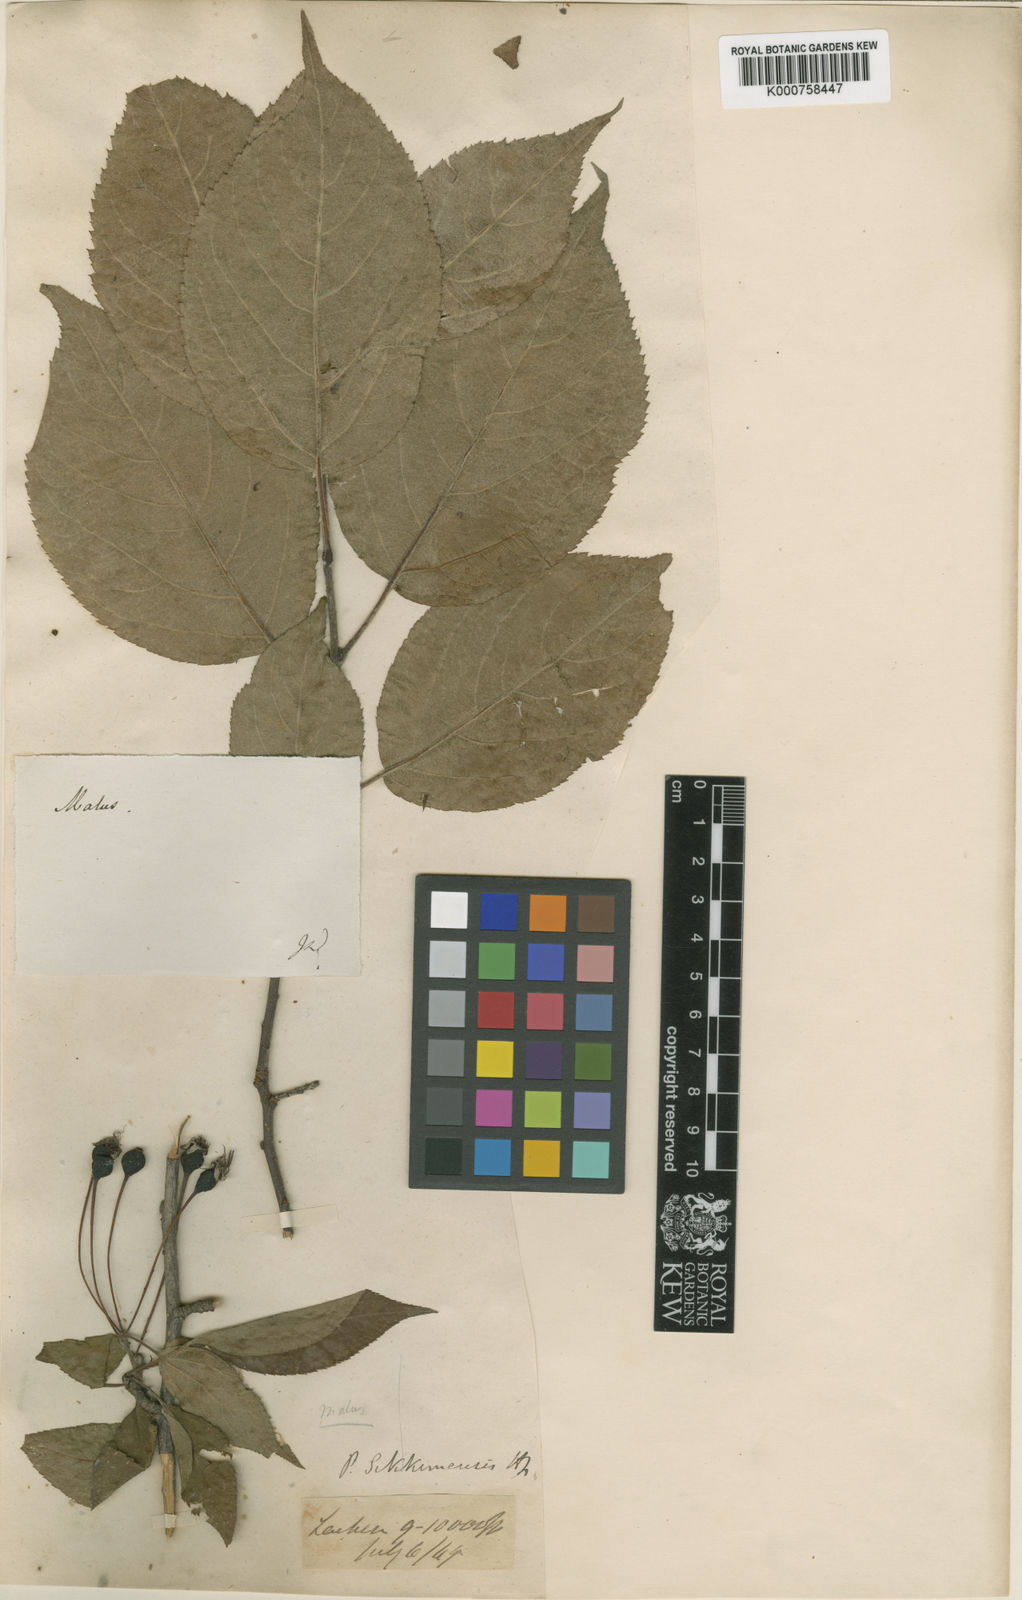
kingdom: Plantae
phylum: Tracheophyta
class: Magnoliopsida
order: Rosales
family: Rosaceae
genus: Malus
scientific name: Malus sikkimensis
